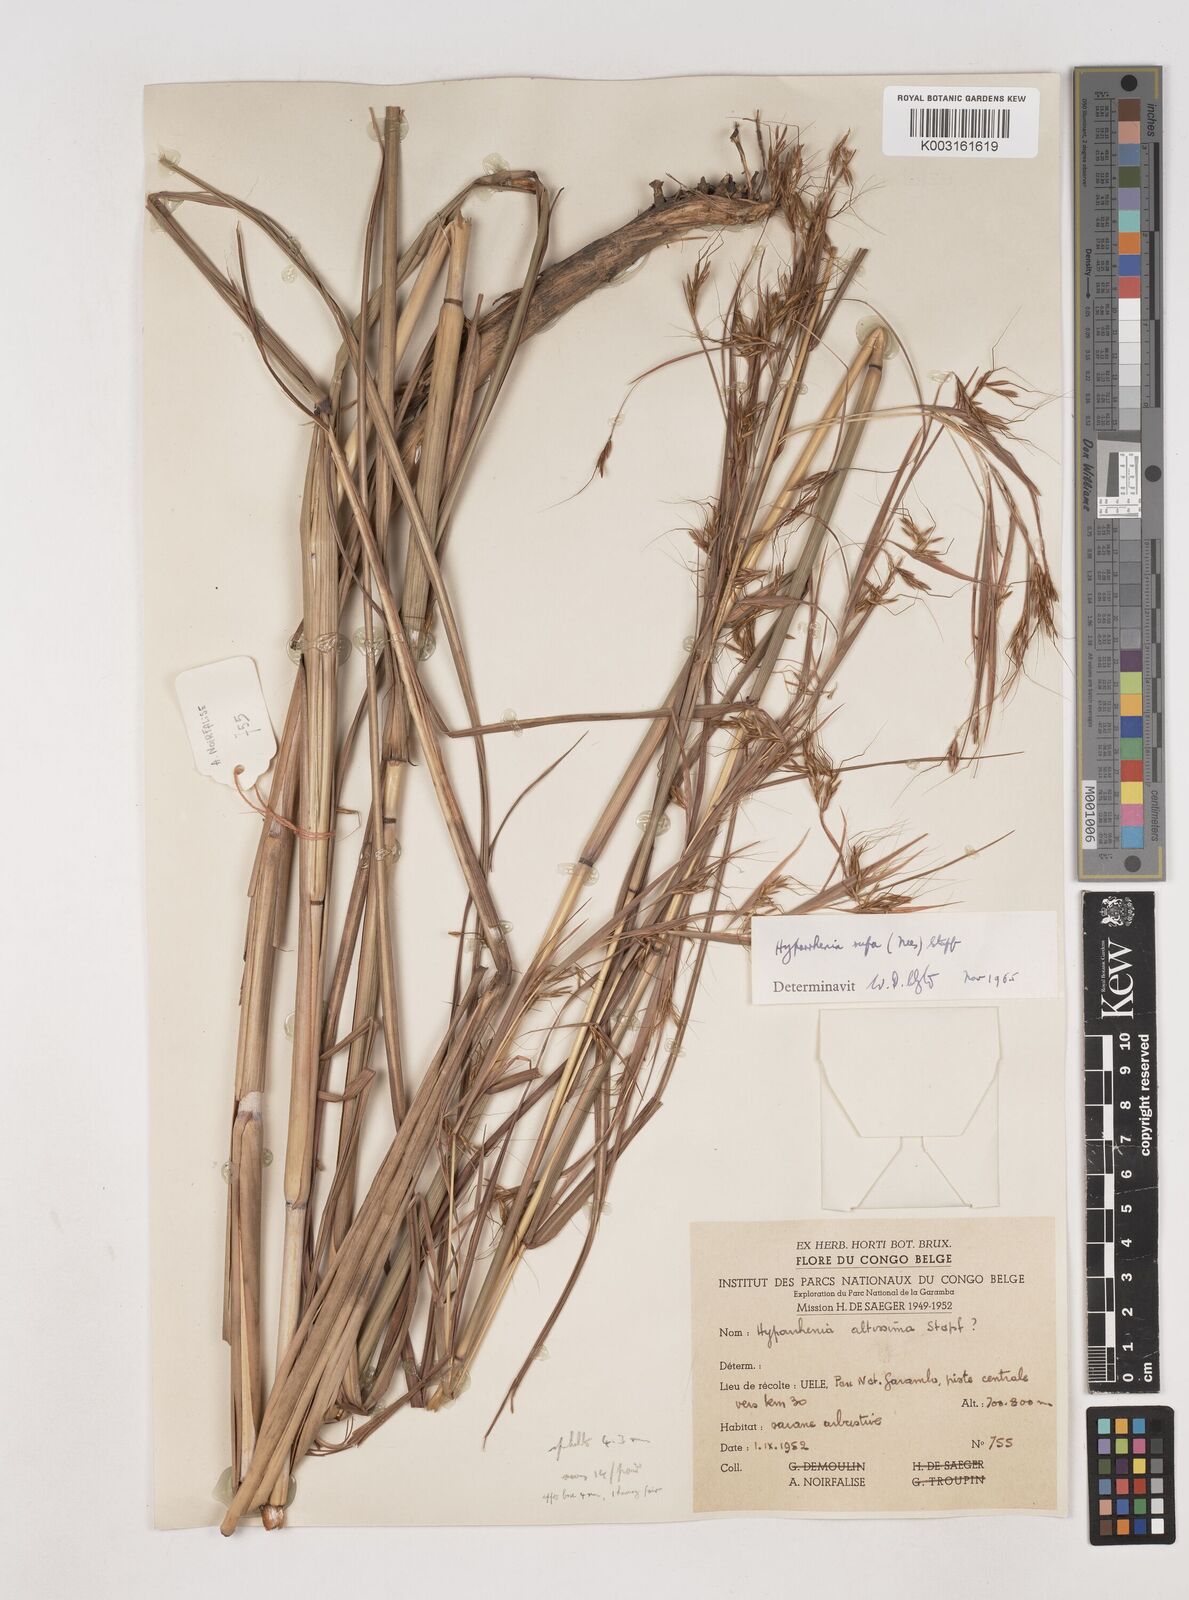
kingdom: Plantae
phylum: Tracheophyta
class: Liliopsida
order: Poales
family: Poaceae
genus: Hyparrhenia
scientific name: Hyparrhenia rufa
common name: Jaraguagrass
